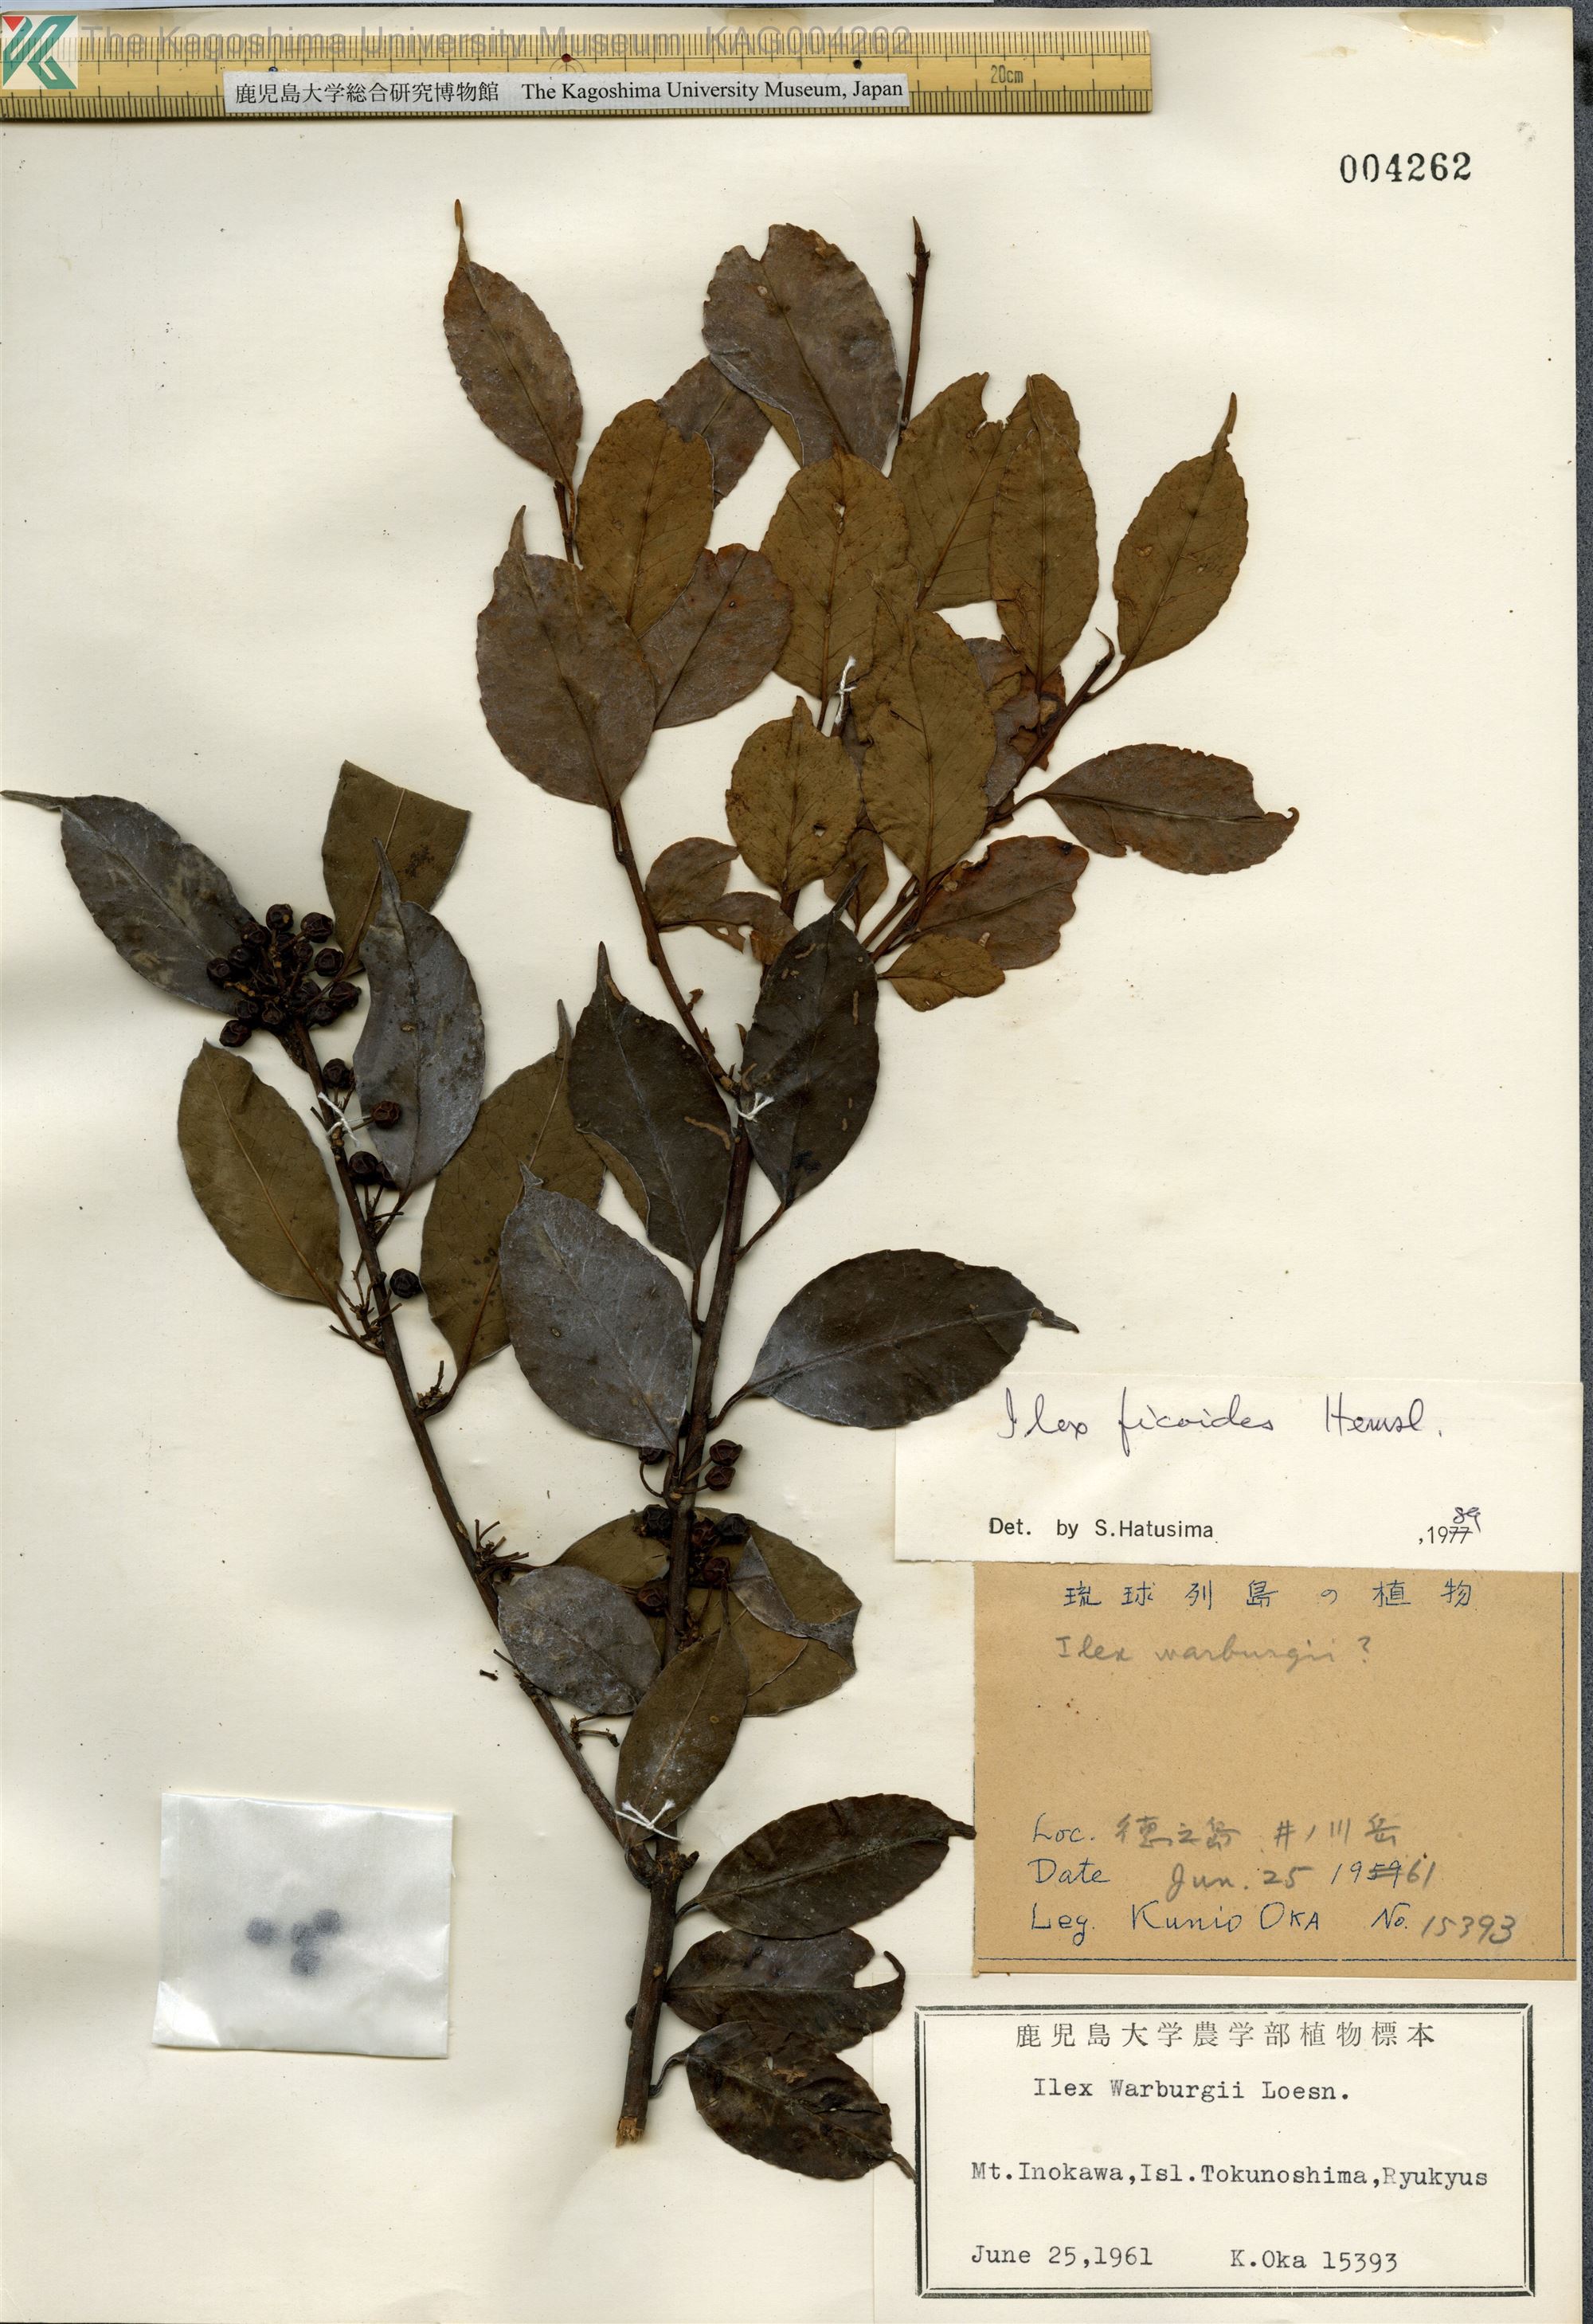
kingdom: Plantae
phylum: Tracheophyta
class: Magnoliopsida
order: Aquifoliales
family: Aquifoliaceae
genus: Ilex
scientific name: Ilex warburgii
